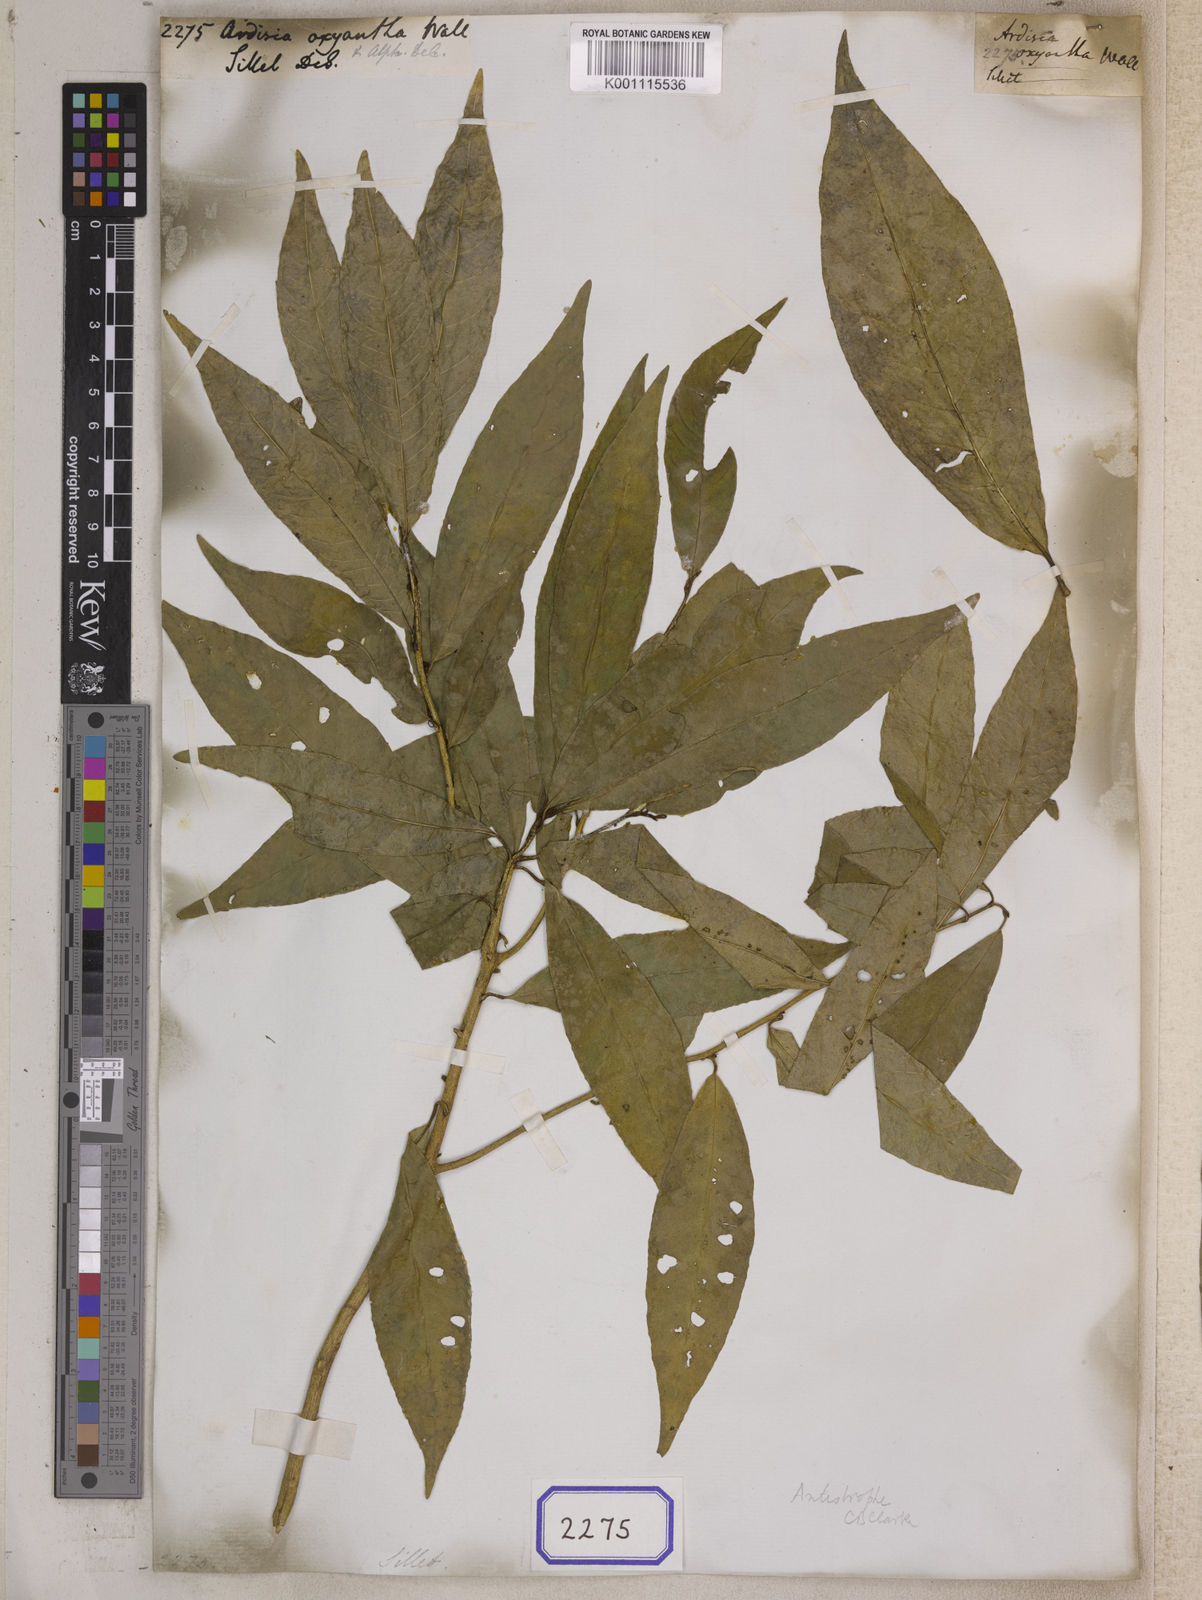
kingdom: Plantae
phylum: Tracheophyta
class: Magnoliopsida
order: Ericales
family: Primulaceae
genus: Ardisia
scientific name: Ardisia
